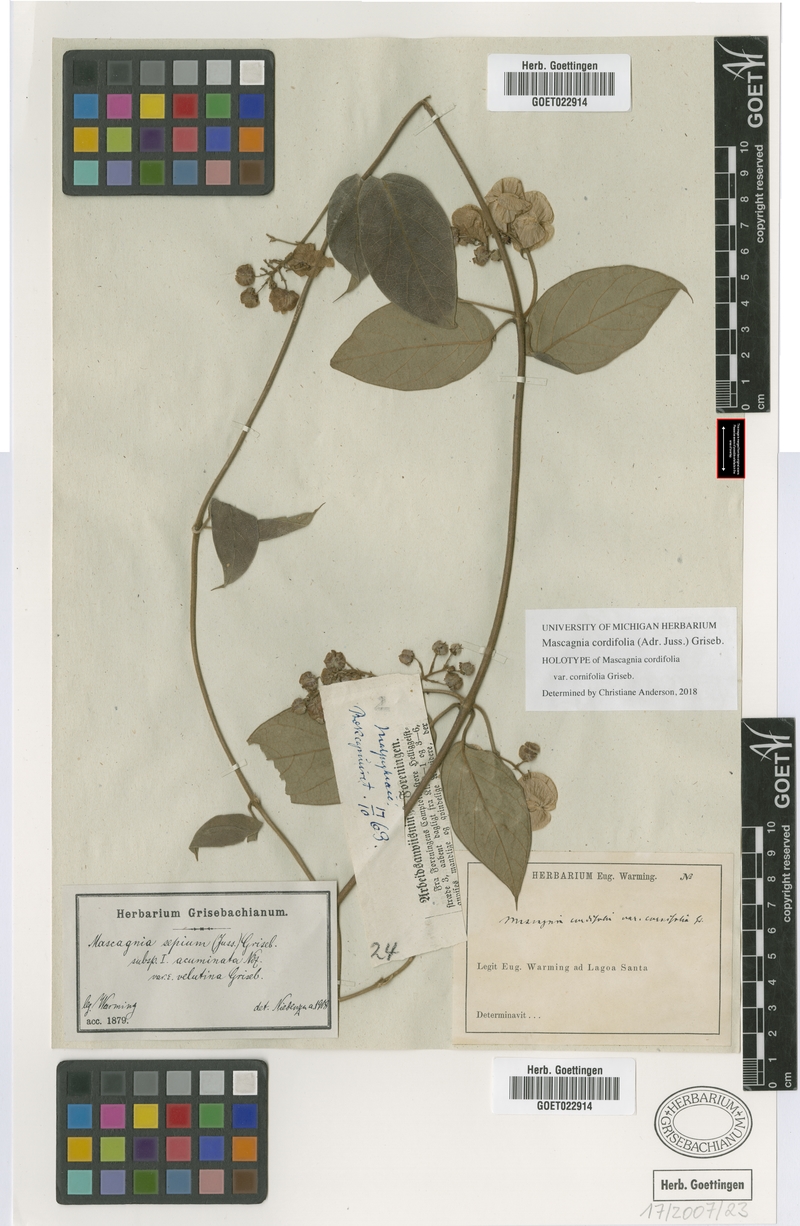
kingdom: Plantae
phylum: Tracheophyta
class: Magnoliopsida
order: Malpighiales
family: Malpighiaceae
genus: Mascagnia
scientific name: Mascagnia cordifolia
